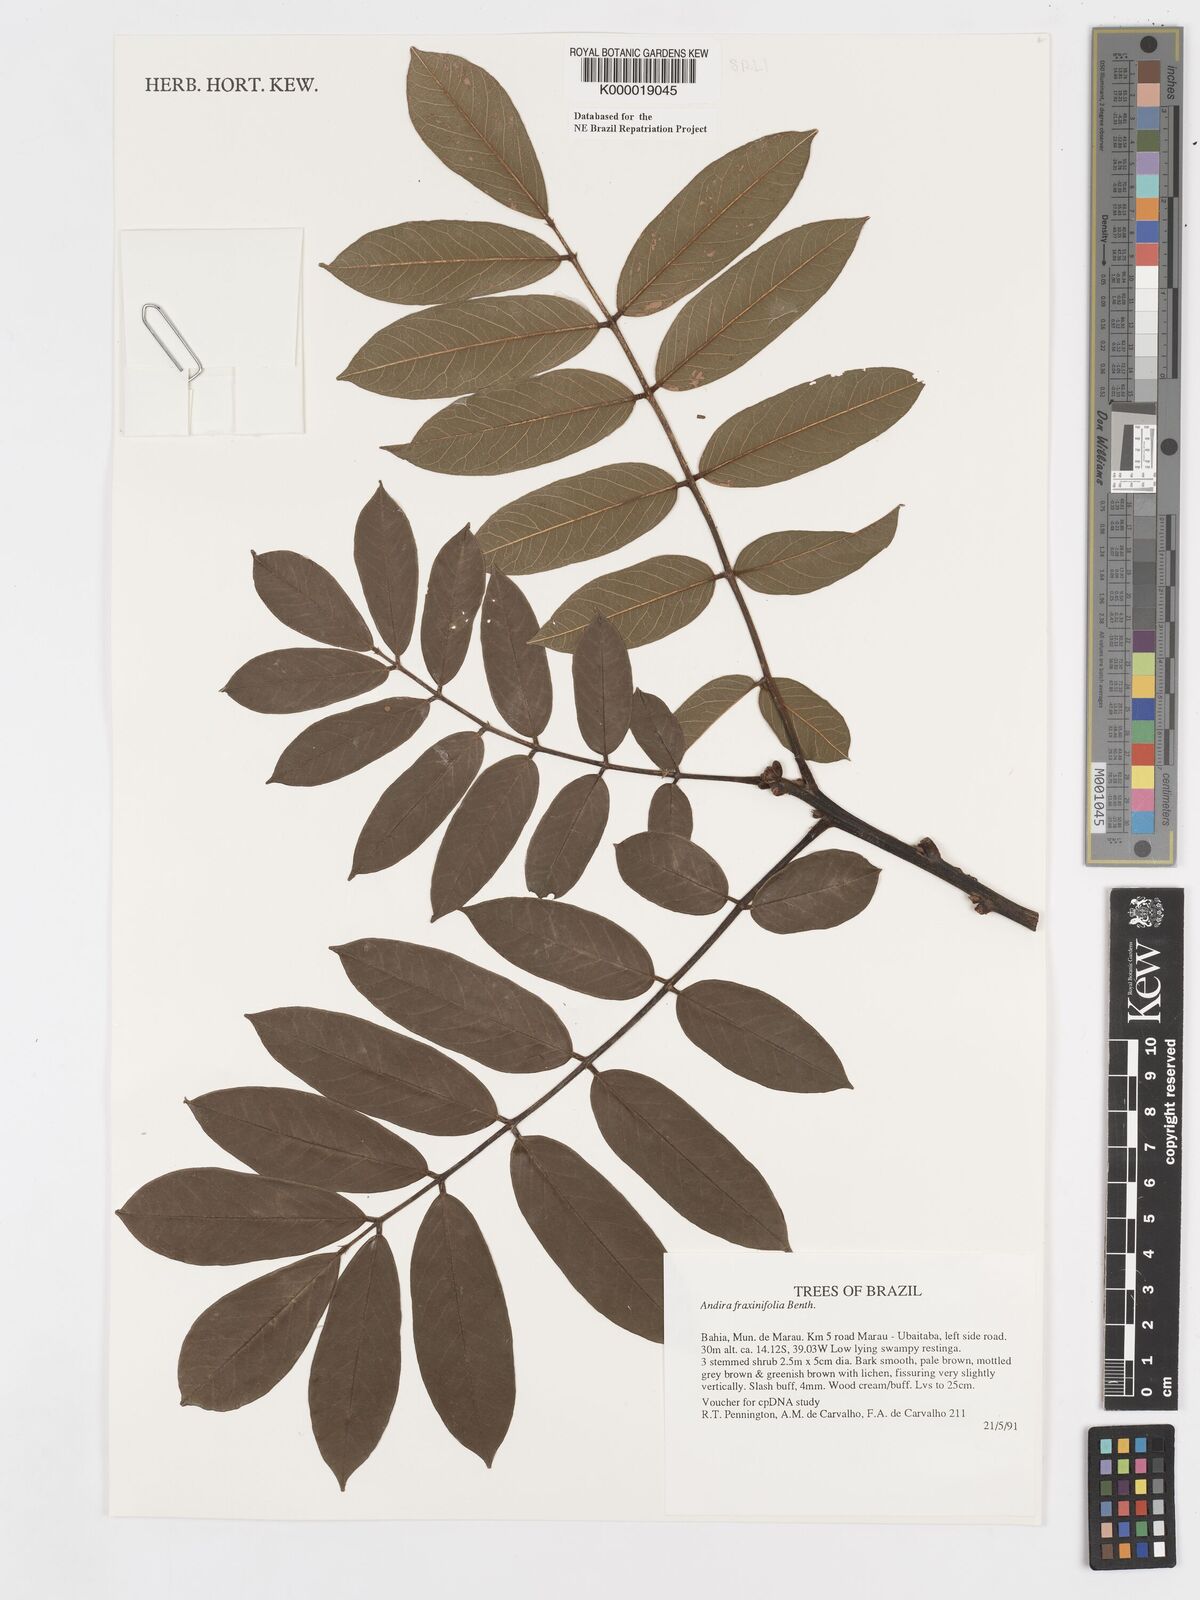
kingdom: Plantae
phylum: Tracheophyta
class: Magnoliopsida
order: Fabales
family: Fabaceae
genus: Andira
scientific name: Andira fraxinifolia
